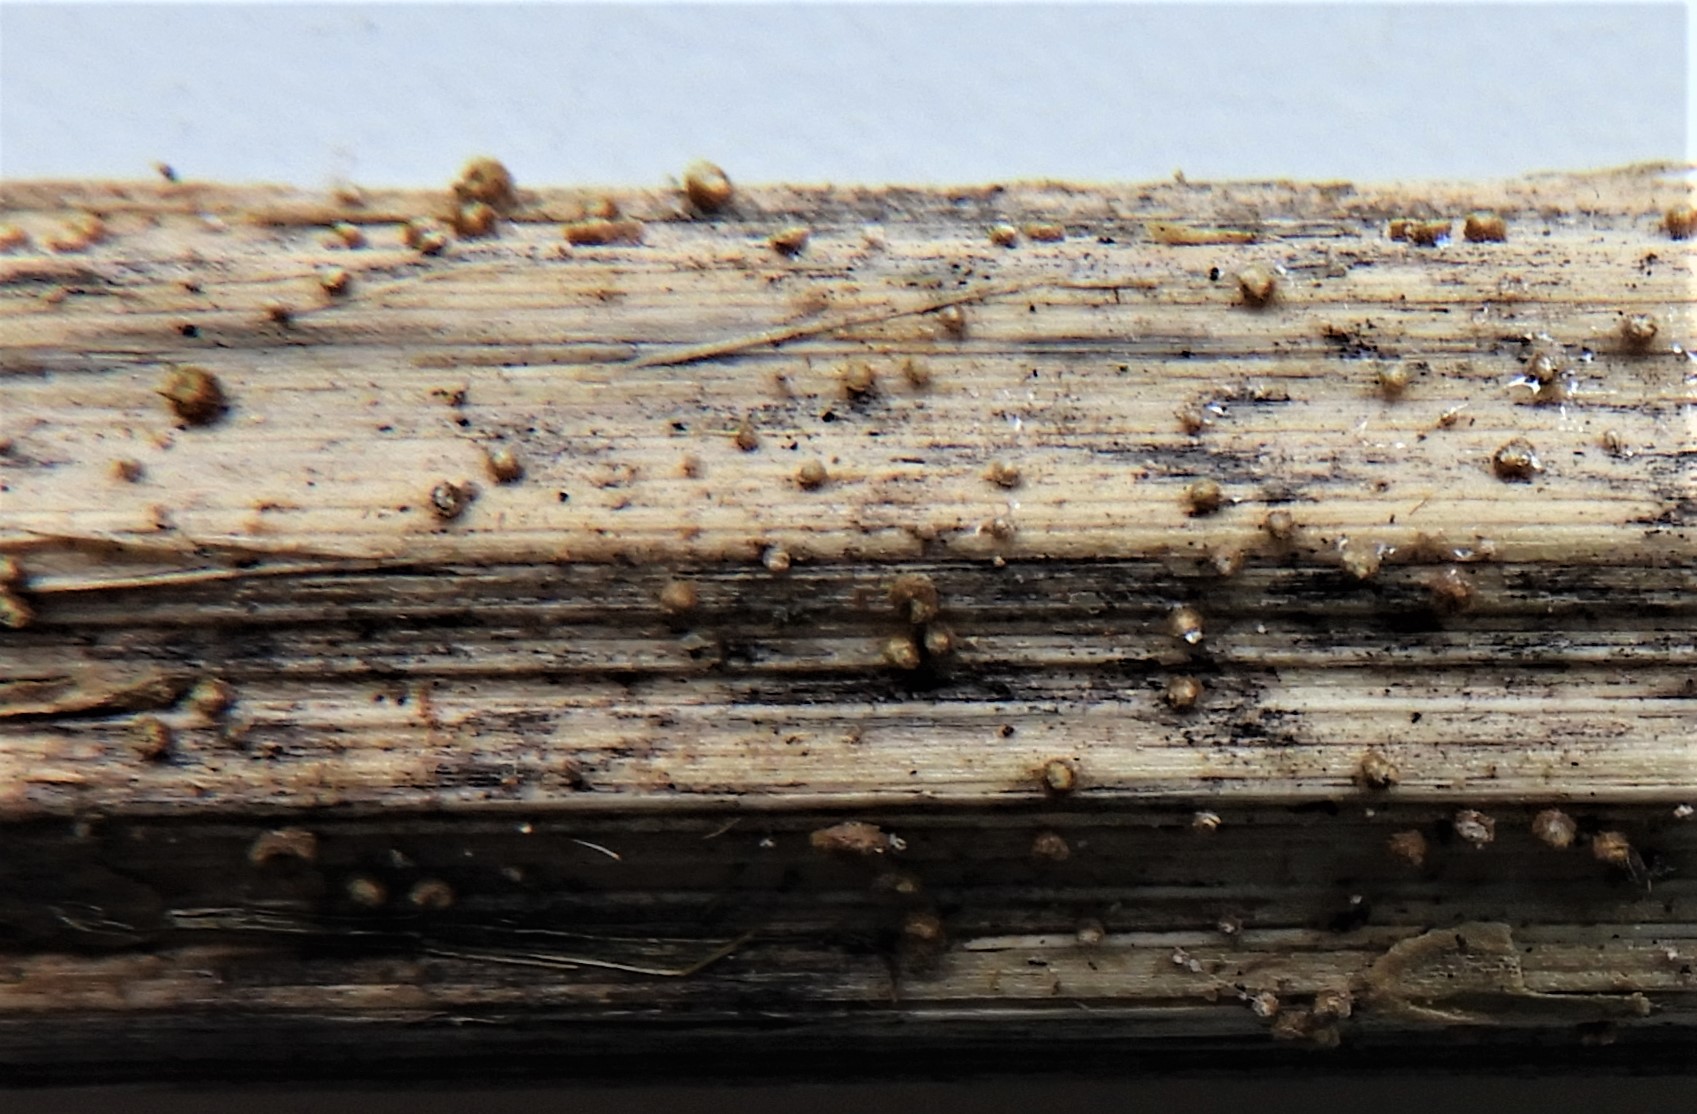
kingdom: Fungi
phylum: Ascomycota
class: Leotiomycetes
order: Helotiales
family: Lachnaceae
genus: Trichopeziza
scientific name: Trichopeziza
